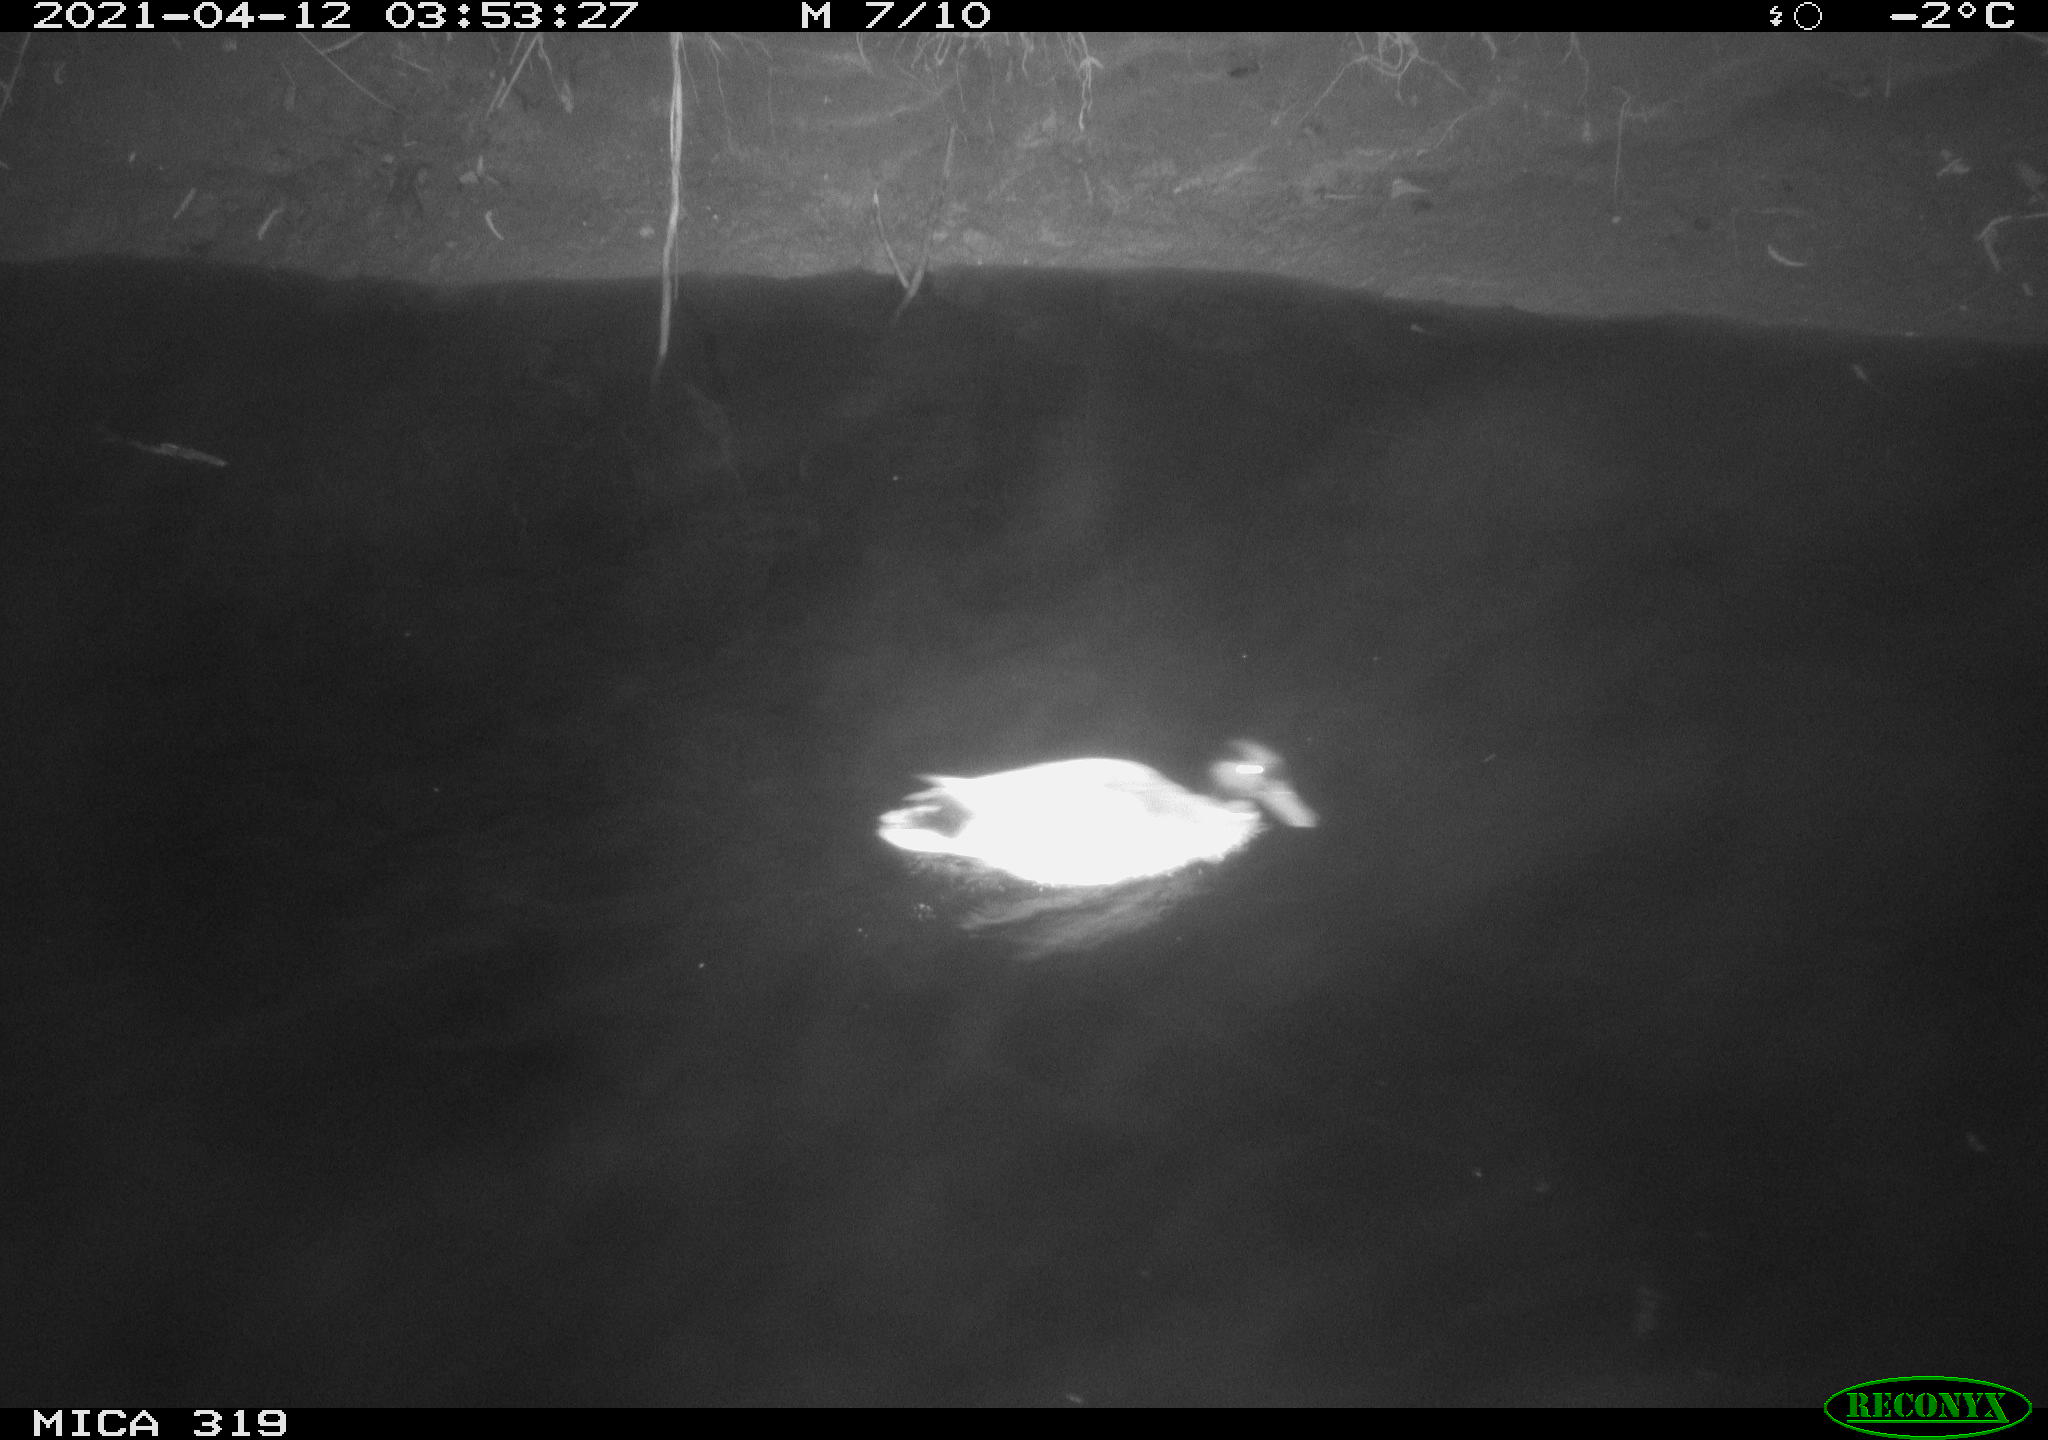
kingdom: Animalia
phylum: Chordata
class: Aves
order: Anseriformes
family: Anatidae
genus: Anas
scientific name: Anas platyrhynchos
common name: Mallard
